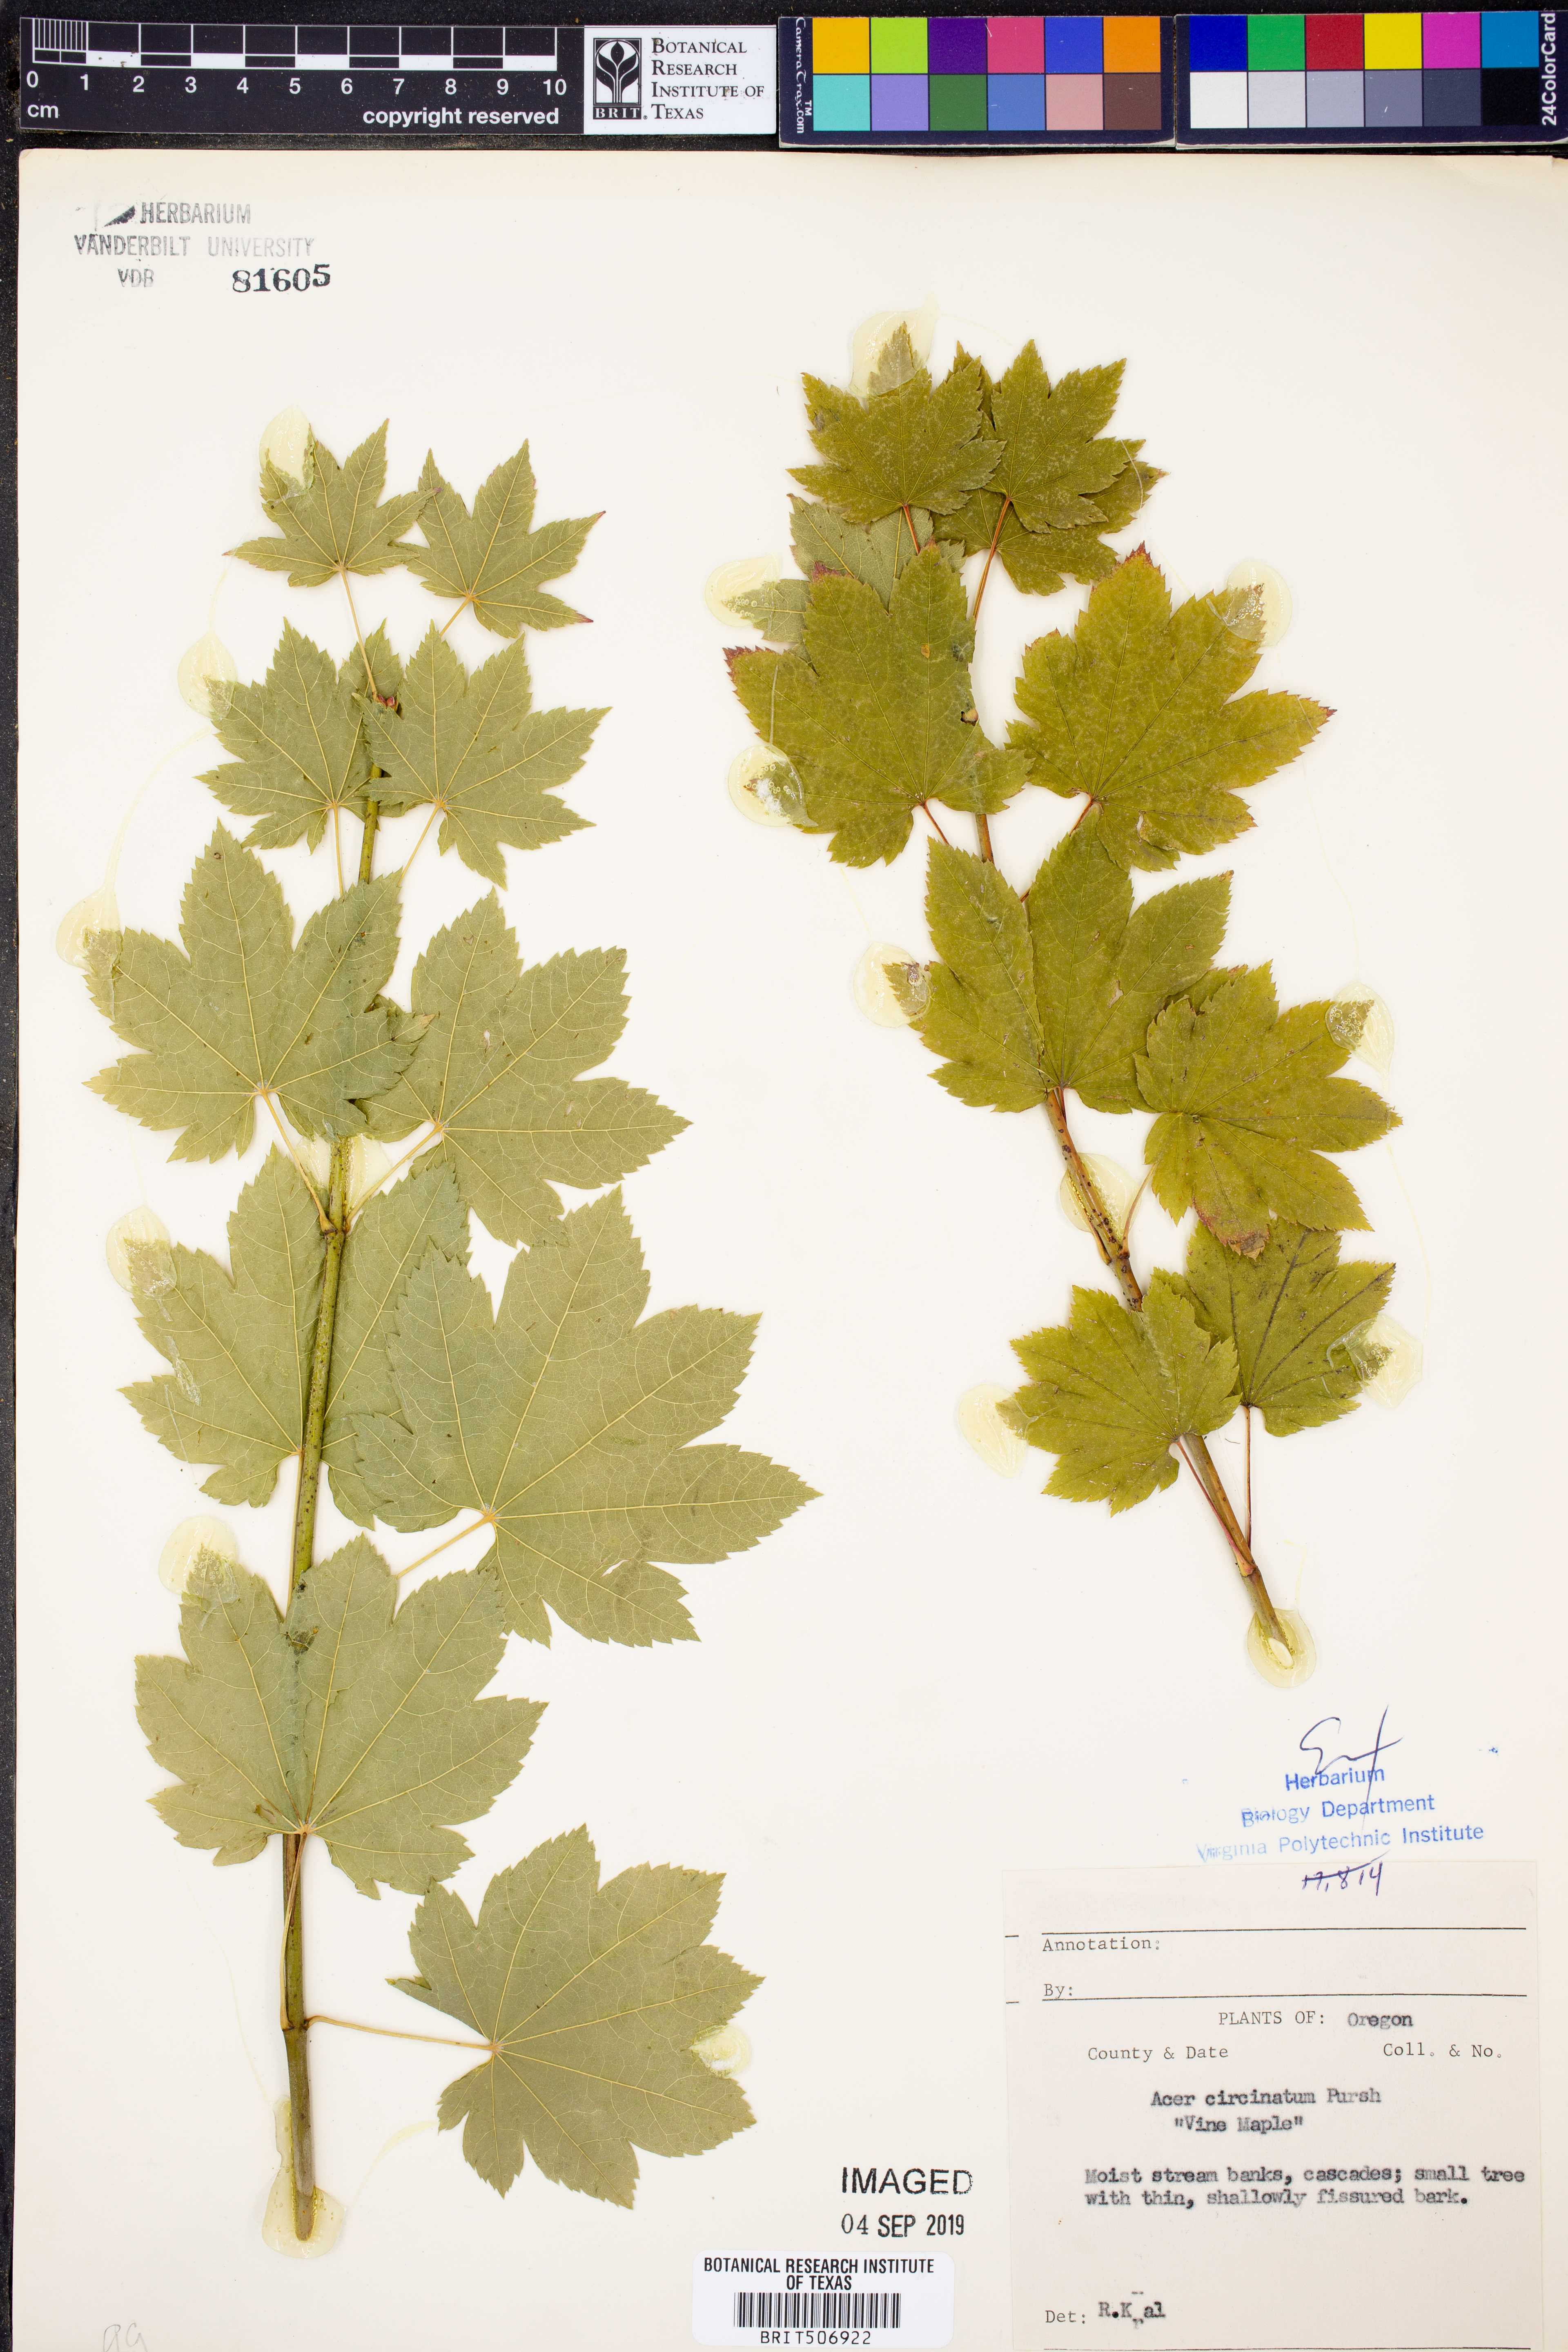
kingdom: Plantae
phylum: Tracheophyta
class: Magnoliopsida
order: Sapindales
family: Sapindaceae
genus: Acer
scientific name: Acer circinatum
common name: Vine maple
